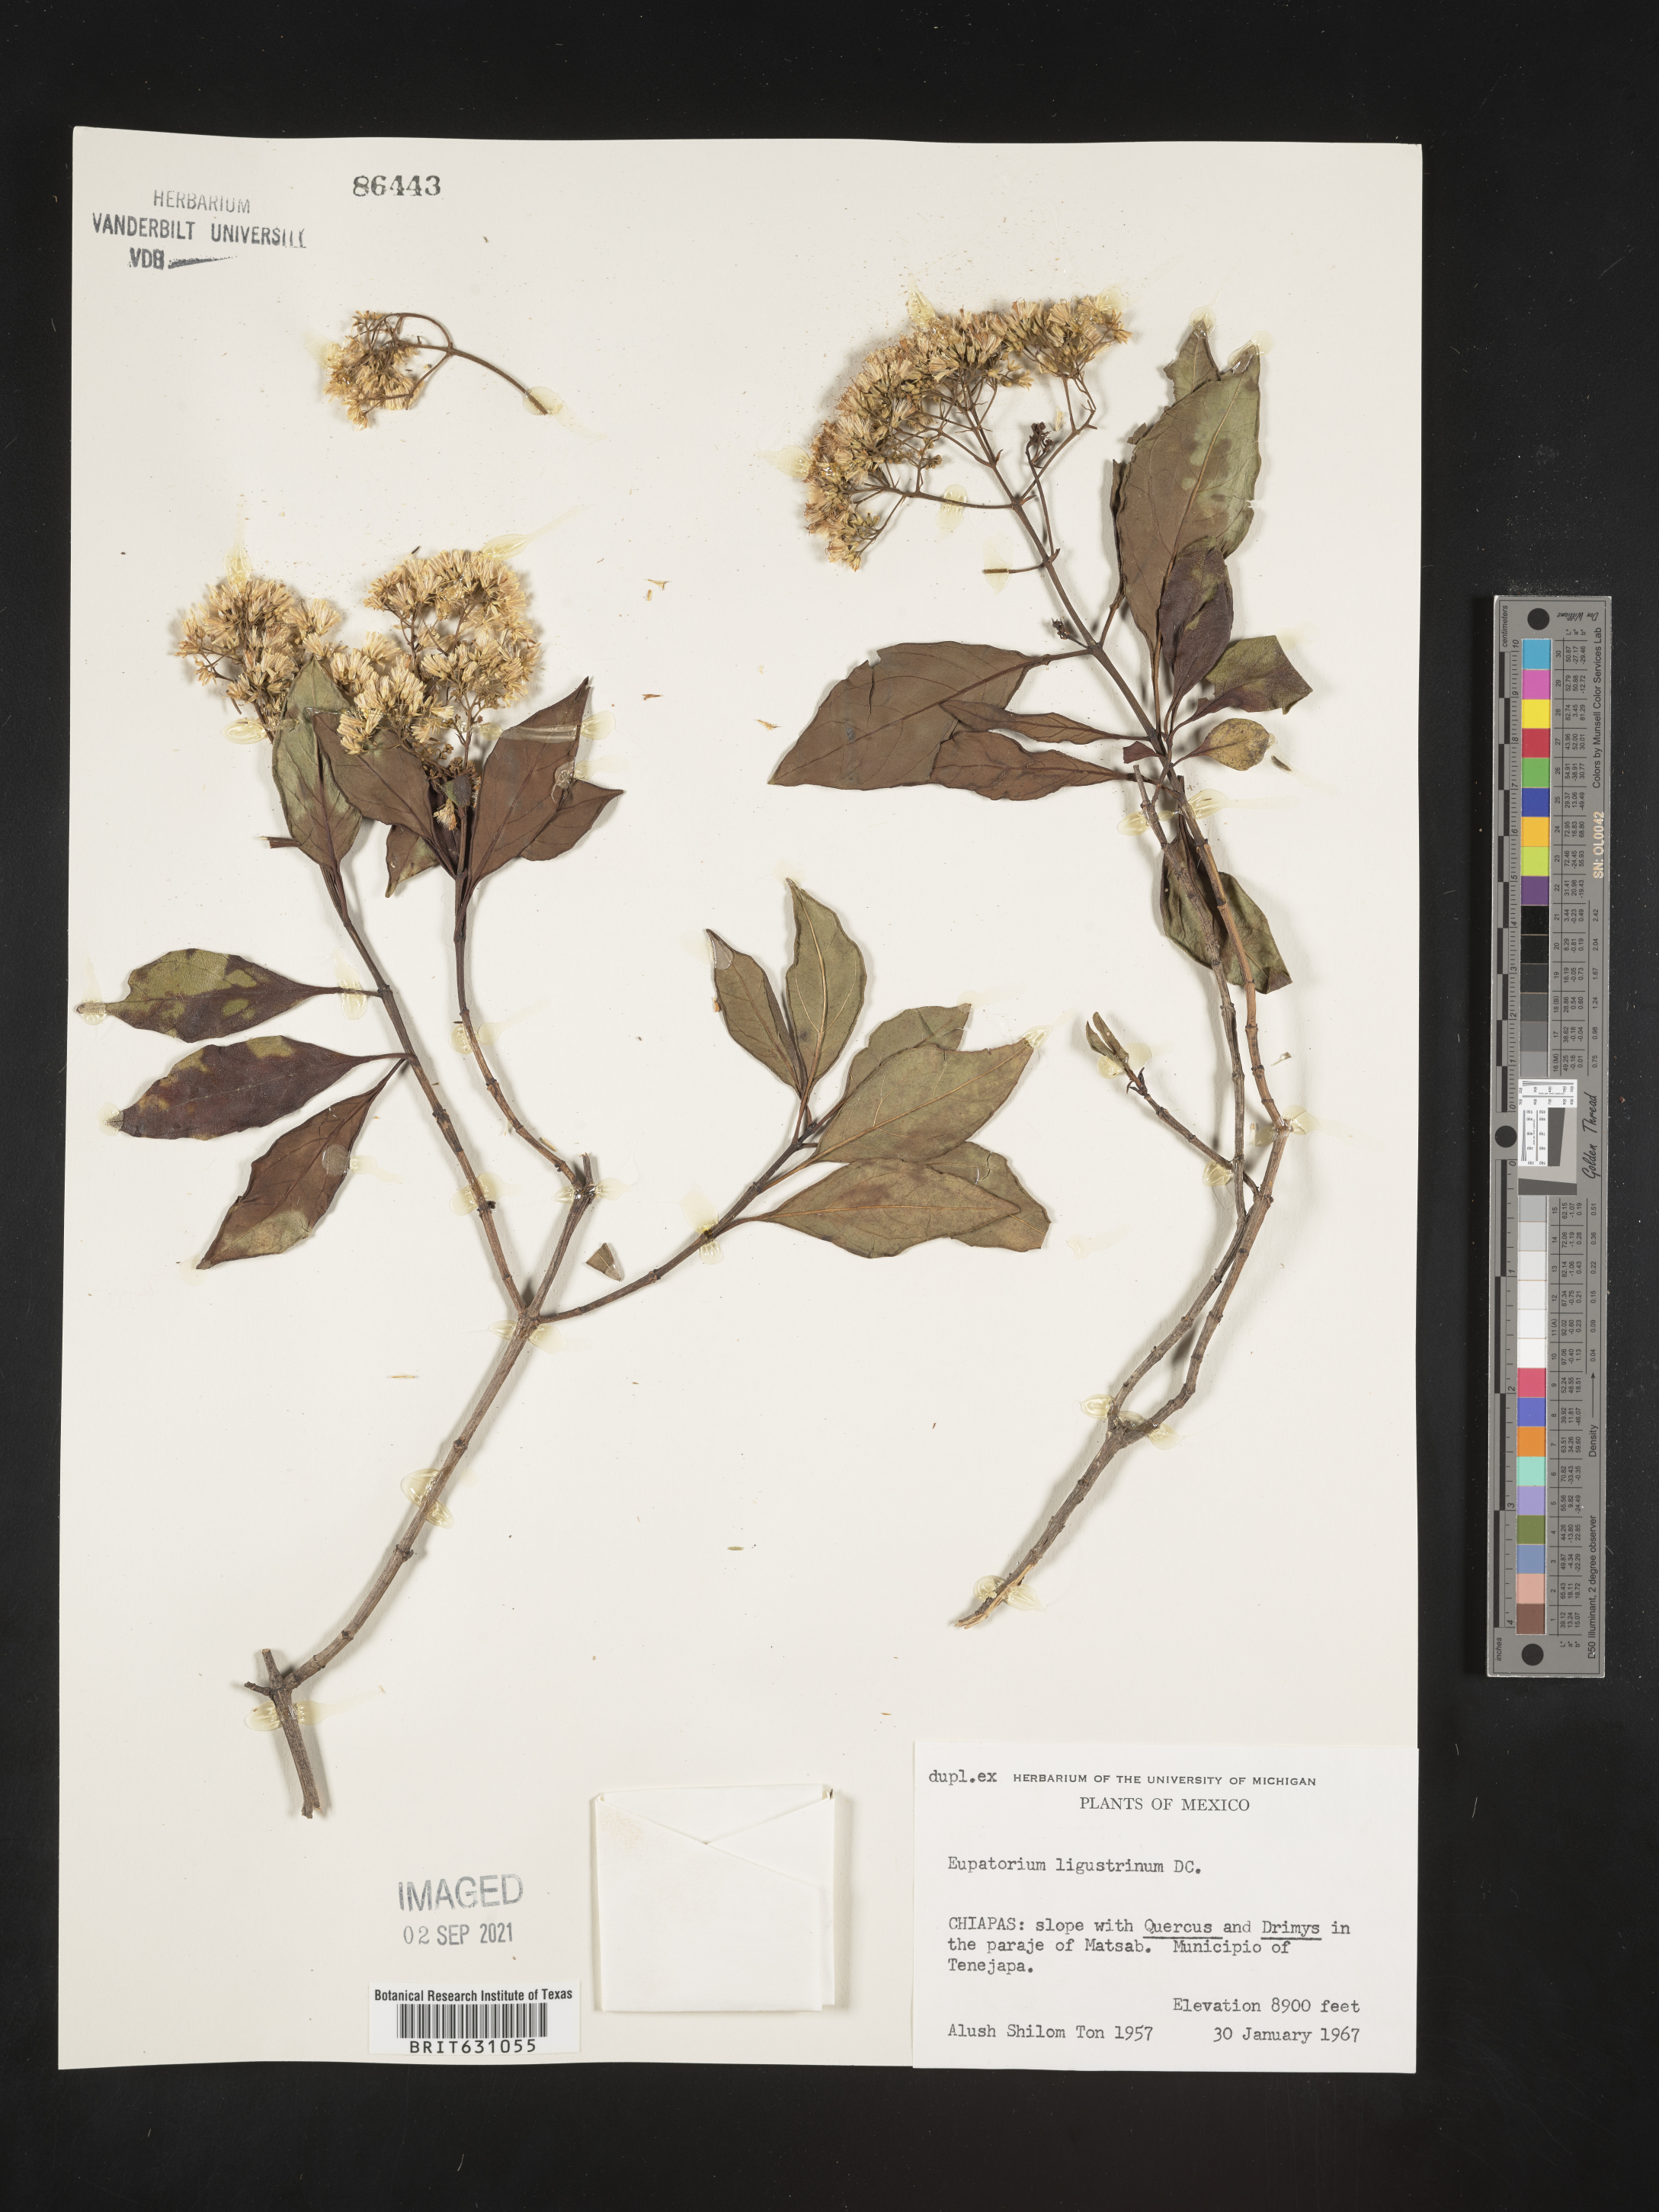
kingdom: Plantae
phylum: Tracheophyta
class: Magnoliopsida
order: Asterales
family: Asteraceae
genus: Eupatorium
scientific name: Eupatorium
